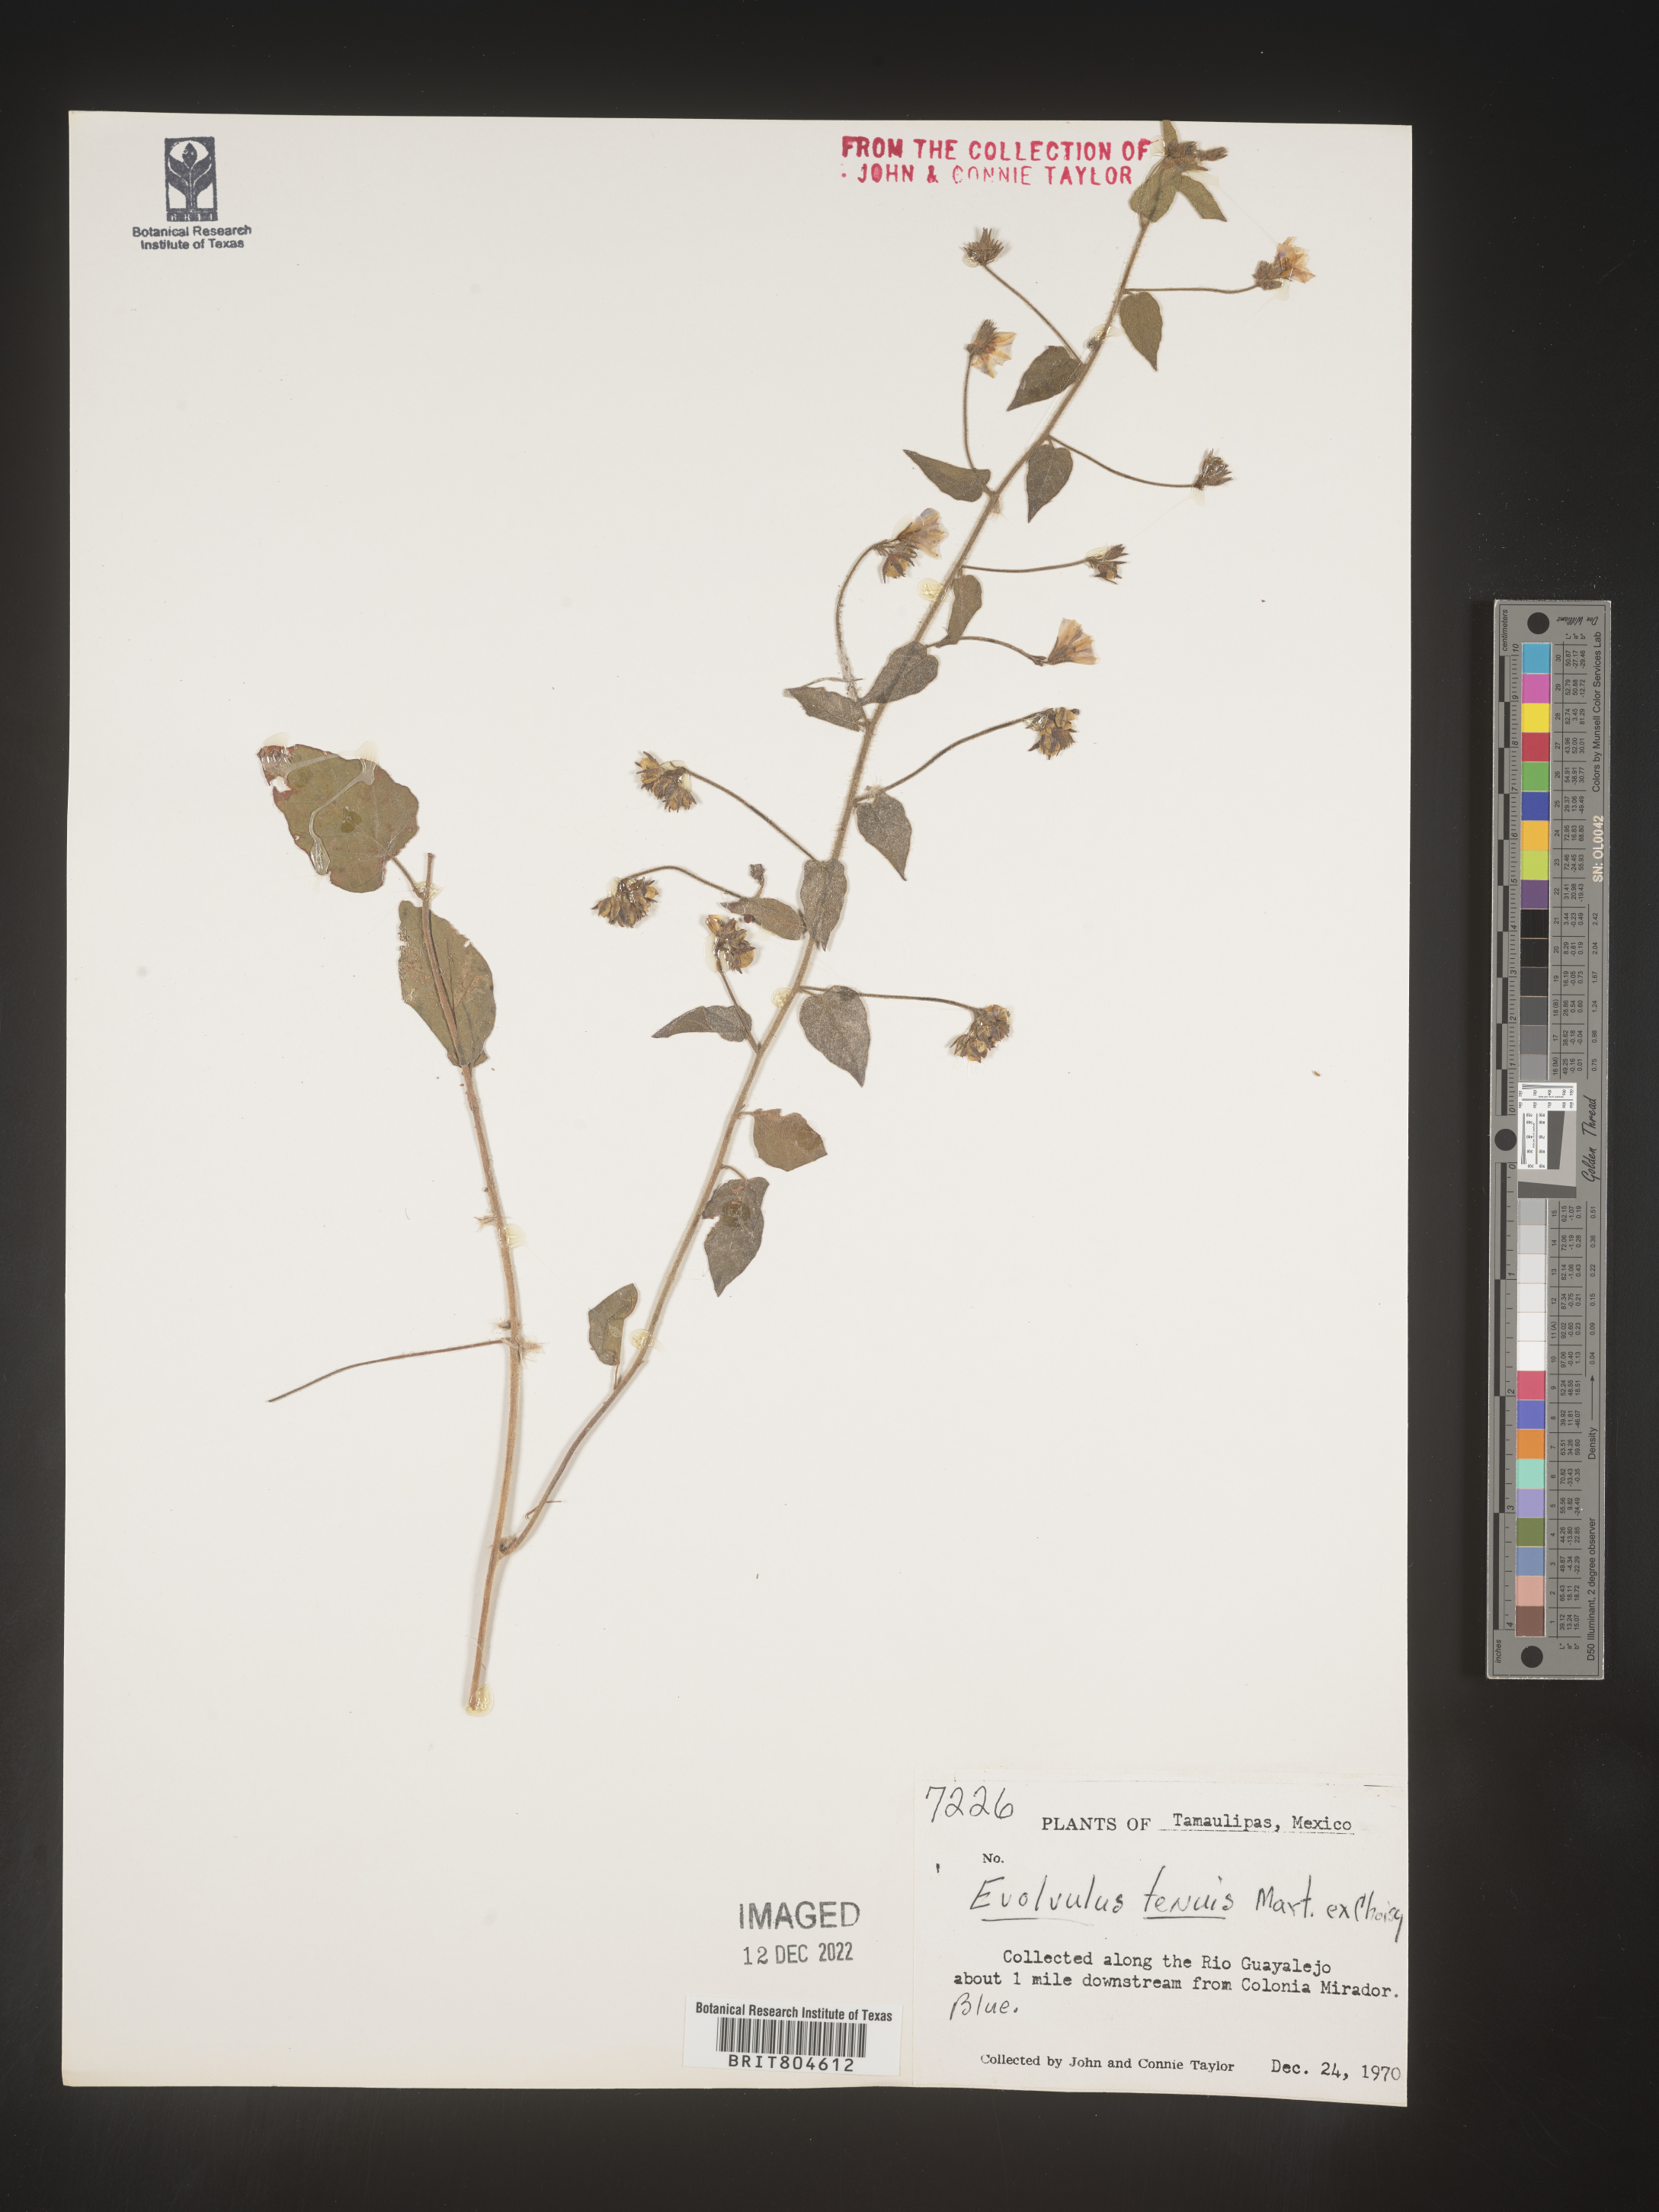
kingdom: Plantae
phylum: Tracheophyta
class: Magnoliopsida
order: Solanales
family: Convolvulaceae
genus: Evolvulus
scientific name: Evolvulus
